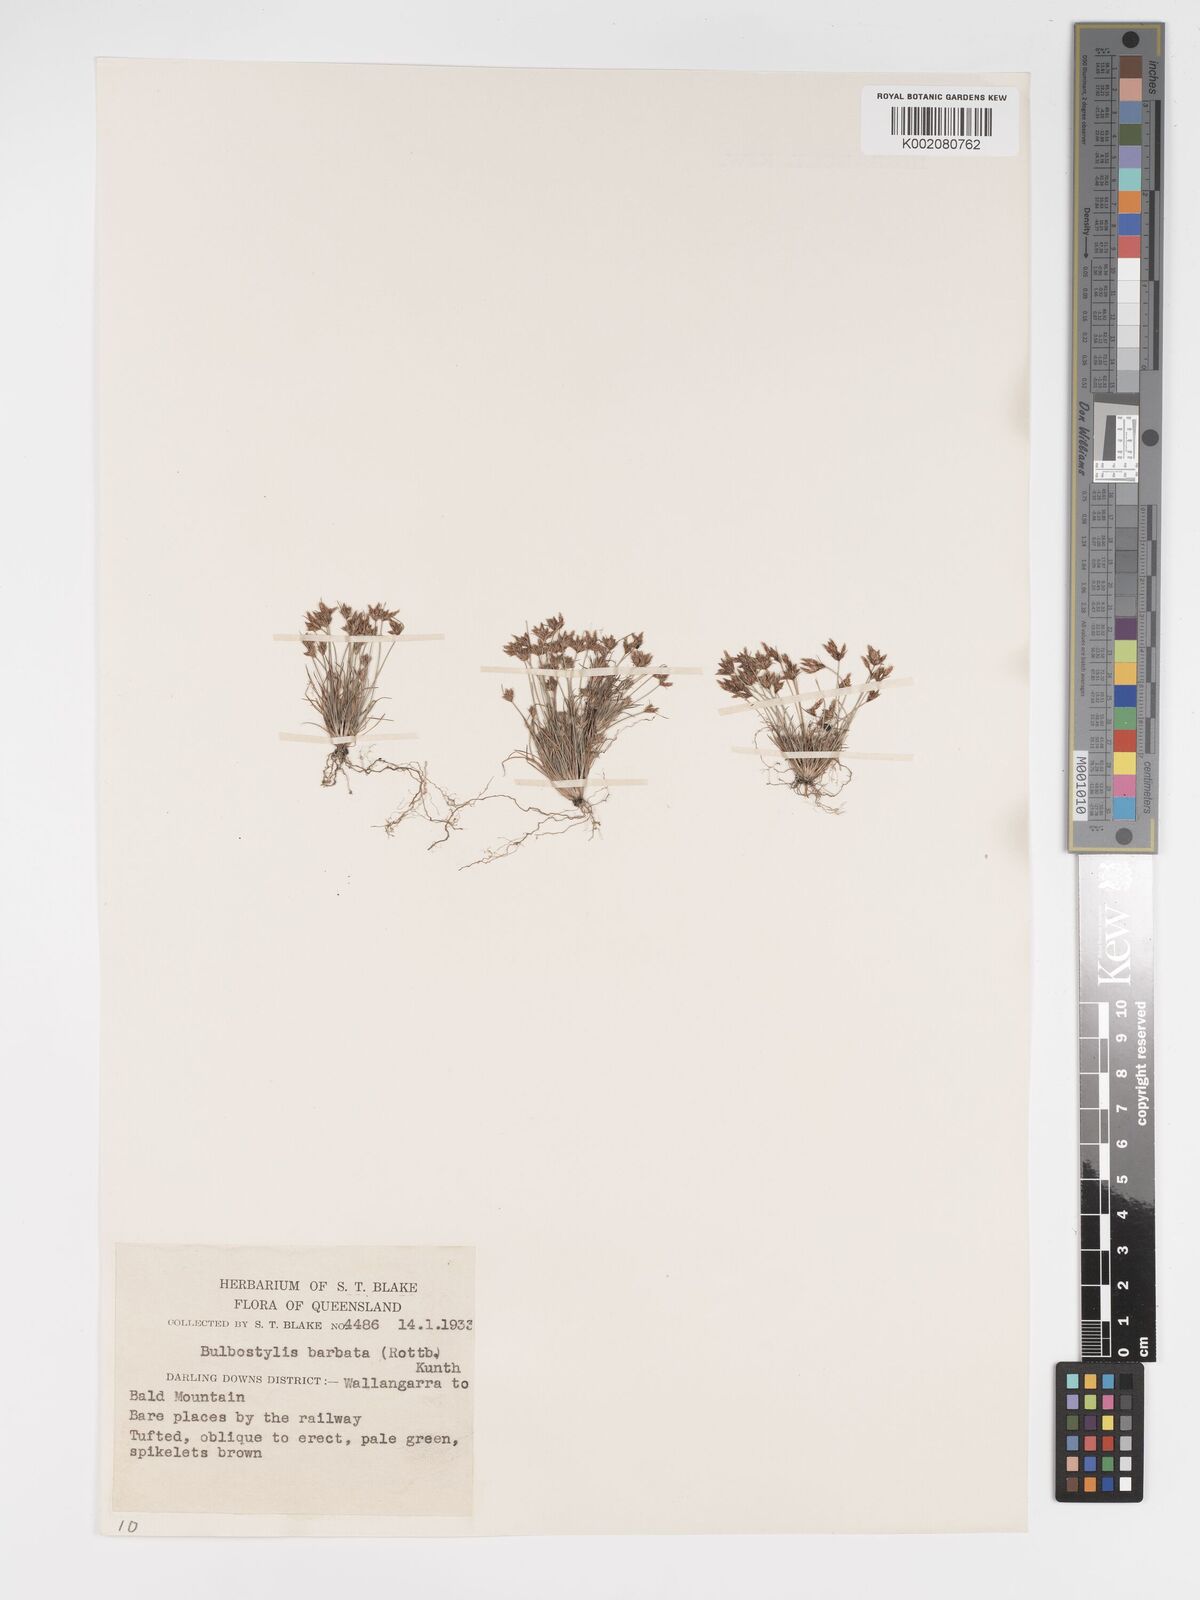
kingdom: Plantae
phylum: Tracheophyta
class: Liliopsida
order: Poales
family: Cyperaceae
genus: Bulbostylis
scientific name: Bulbostylis barbata
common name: Watergrass
